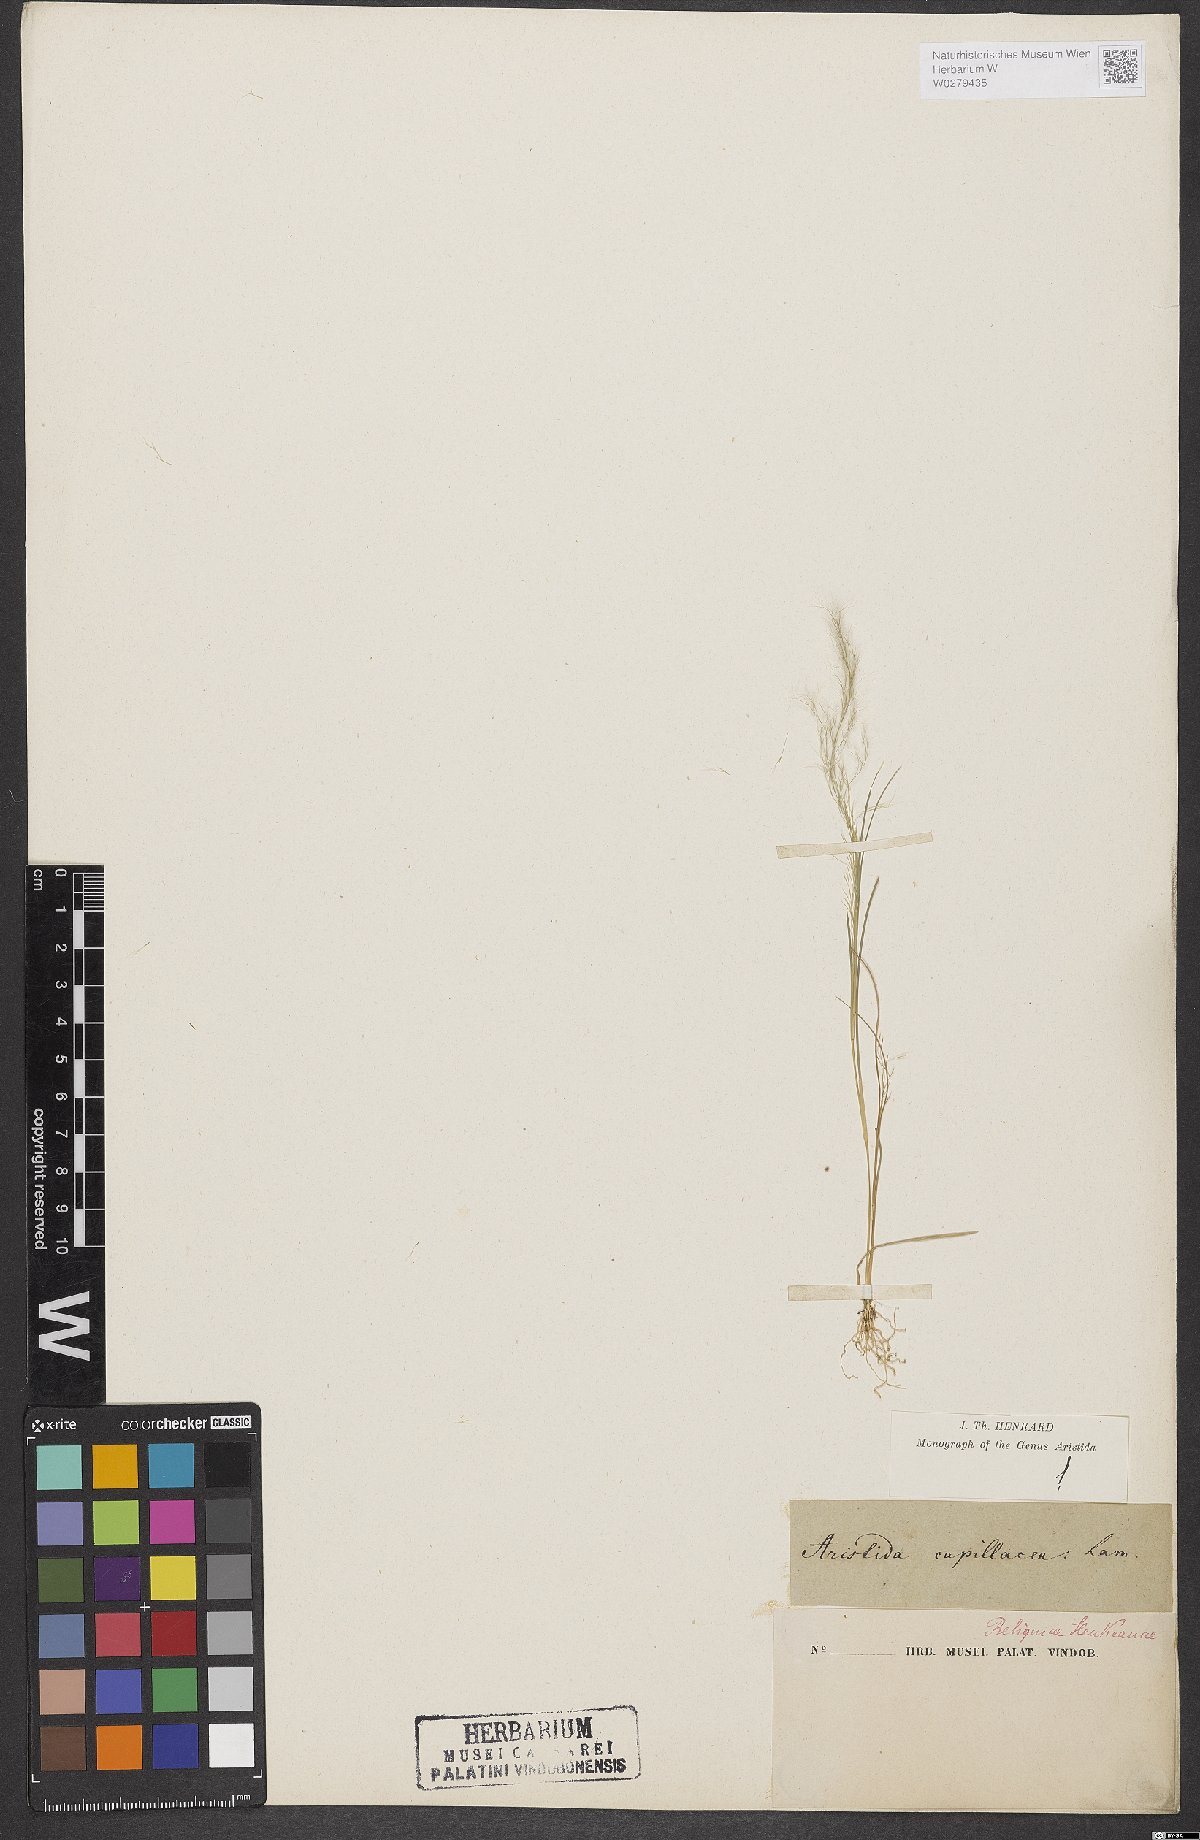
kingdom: Plantae
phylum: Tracheophyta
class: Liliopsida
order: Poales
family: Poaceae
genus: Aristida
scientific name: Aristida capillacea
